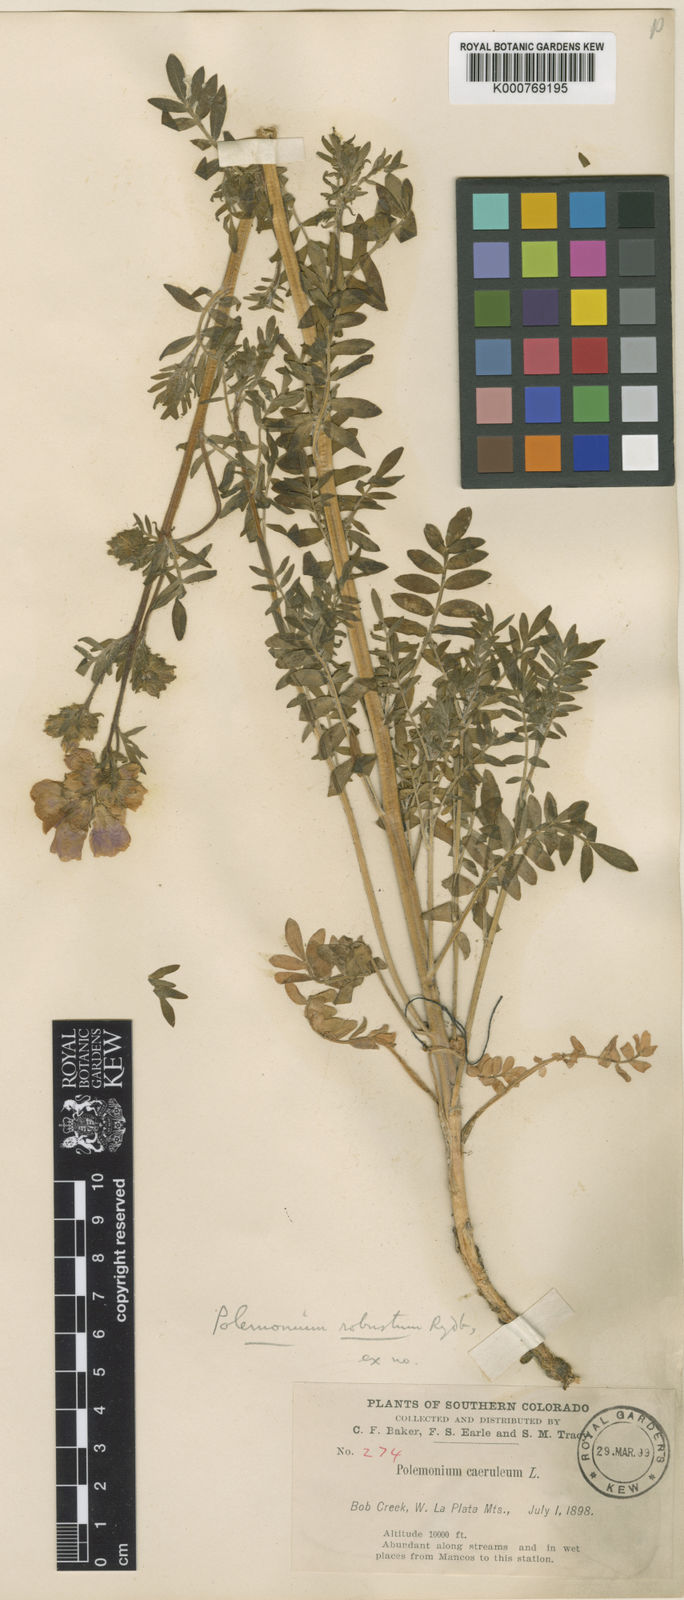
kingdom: Plantae
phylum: Tracheophyta
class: Magnoliopsida
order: Ericales
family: Polemoniaceae
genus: Polemonium
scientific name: Polemonium foliosissimum
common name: Leafy jacob's-ladder
